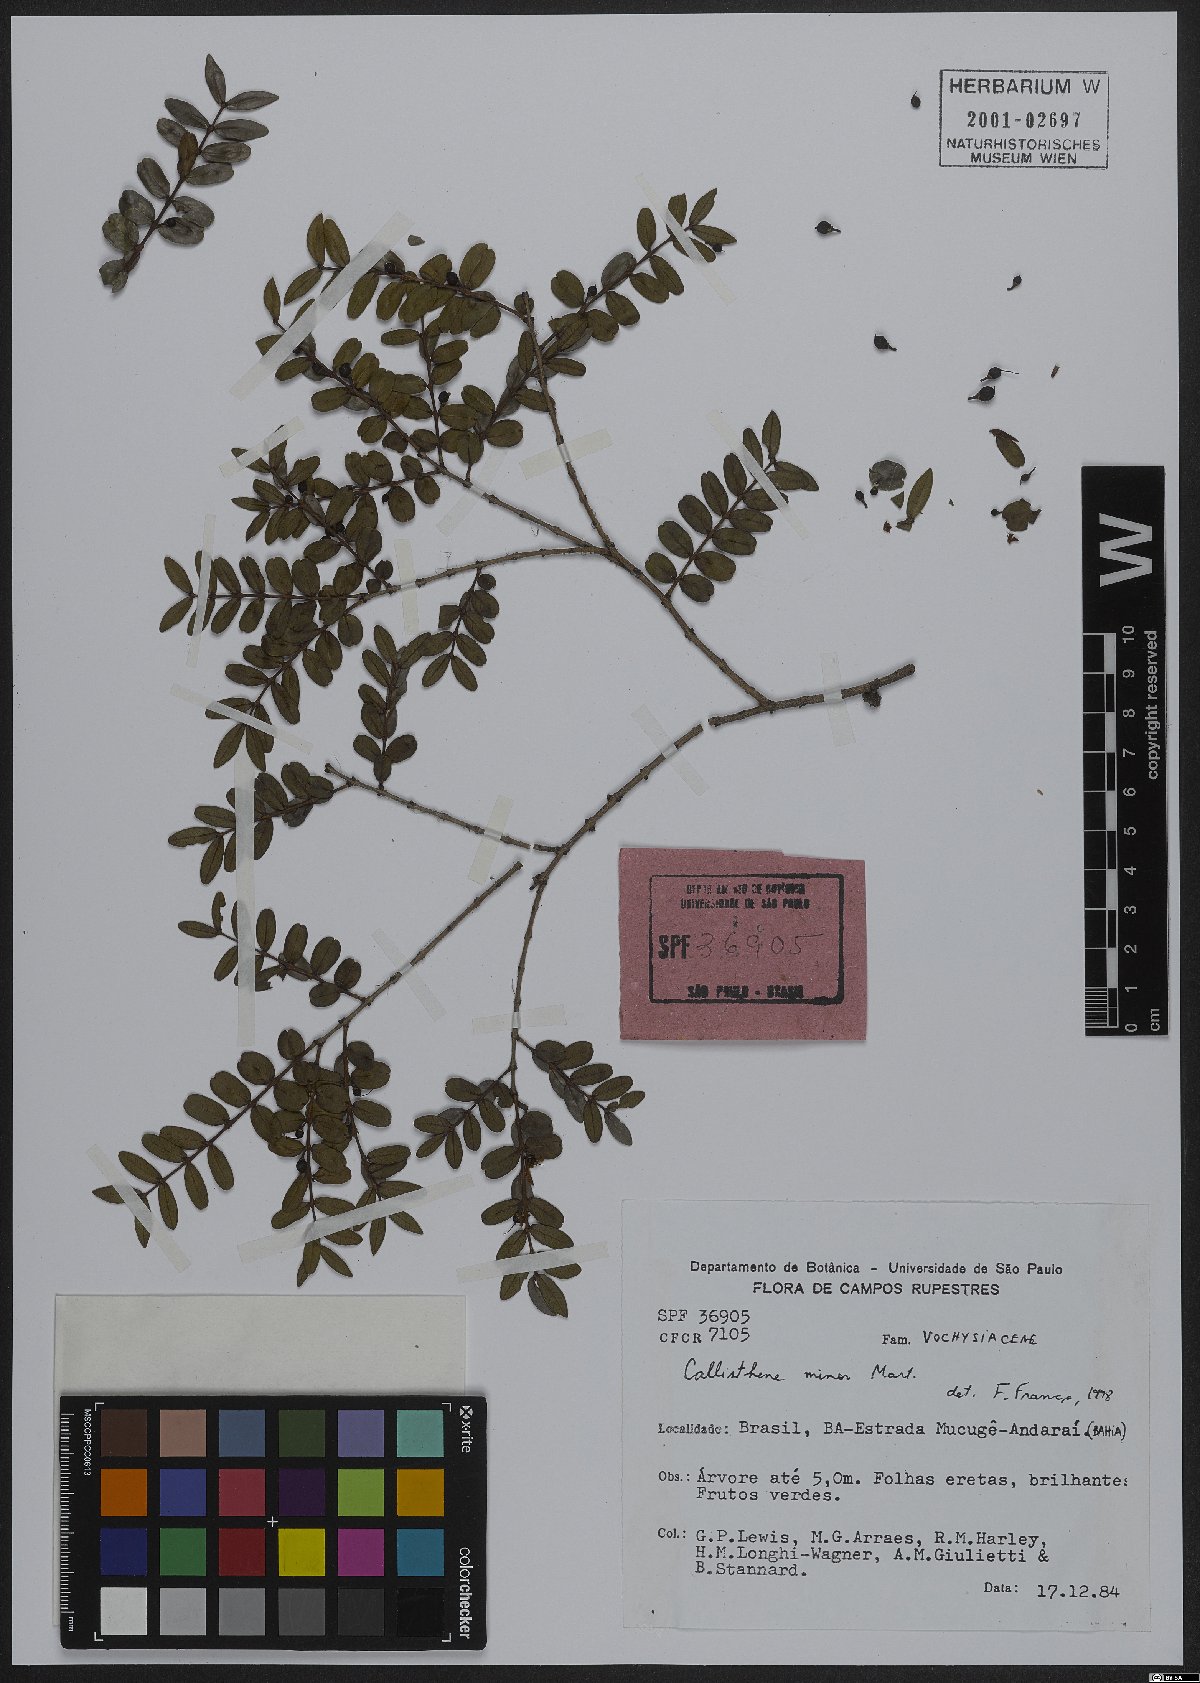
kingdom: Plantae
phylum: Tracheophyta
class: Magnoliopsida
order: Myrtales
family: Vochysiaceae
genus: Callisthene
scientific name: Callisthene minor
